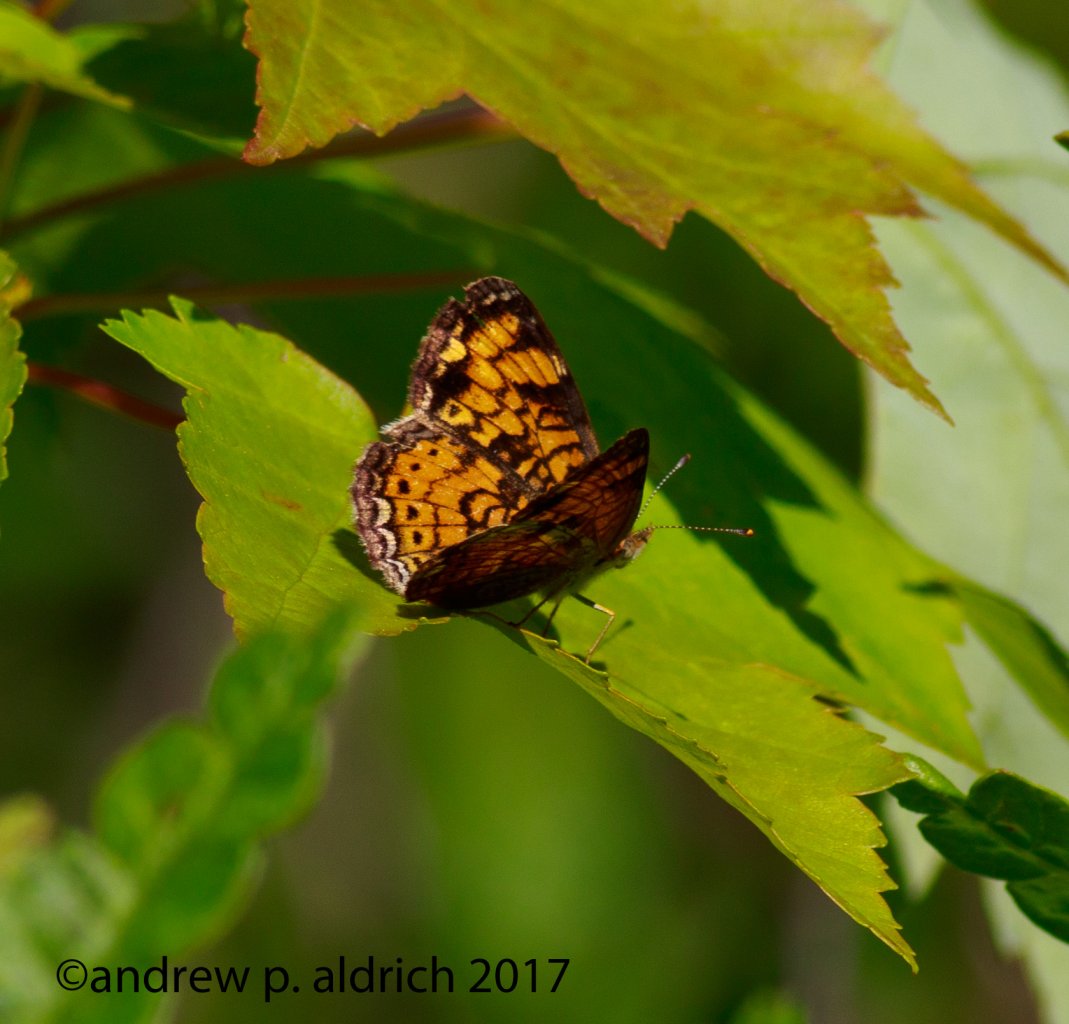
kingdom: Animalia
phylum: Arthropoda
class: Insecta
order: Lepidoptera
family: Nymphalidae
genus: Phyciodes
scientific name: Phyciodes
